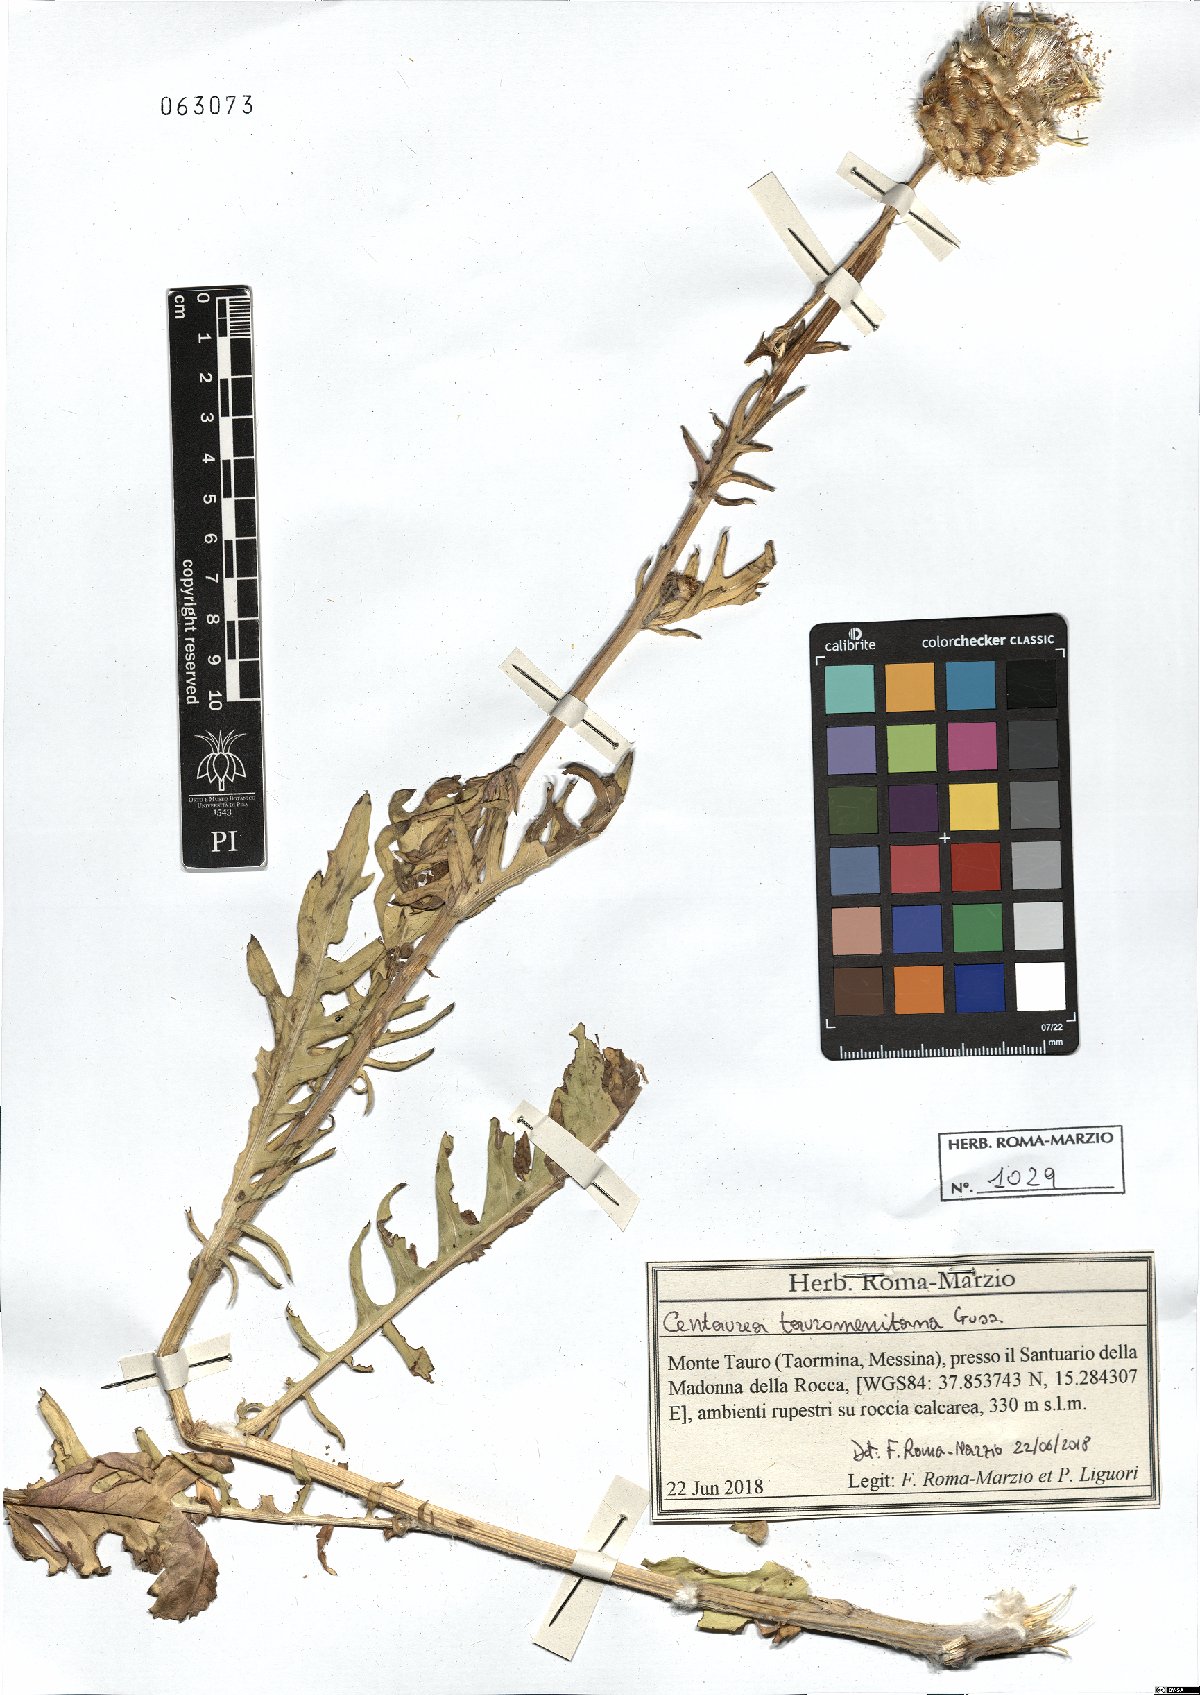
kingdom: Plantae
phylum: Tracheophyta
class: Magnoliopsida
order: Asterales
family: Asteraceae
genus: Centaurea
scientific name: Centaurea tauromenitana
